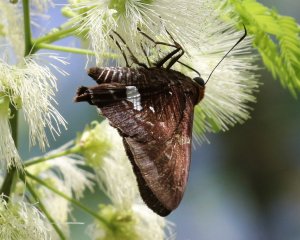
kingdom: Animalia
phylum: Arthropoda
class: Insecta
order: Lepidoptera
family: Hesperiidae
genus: Epargyreus
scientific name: Epargyreus exadeus
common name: Broken Silverdrop
